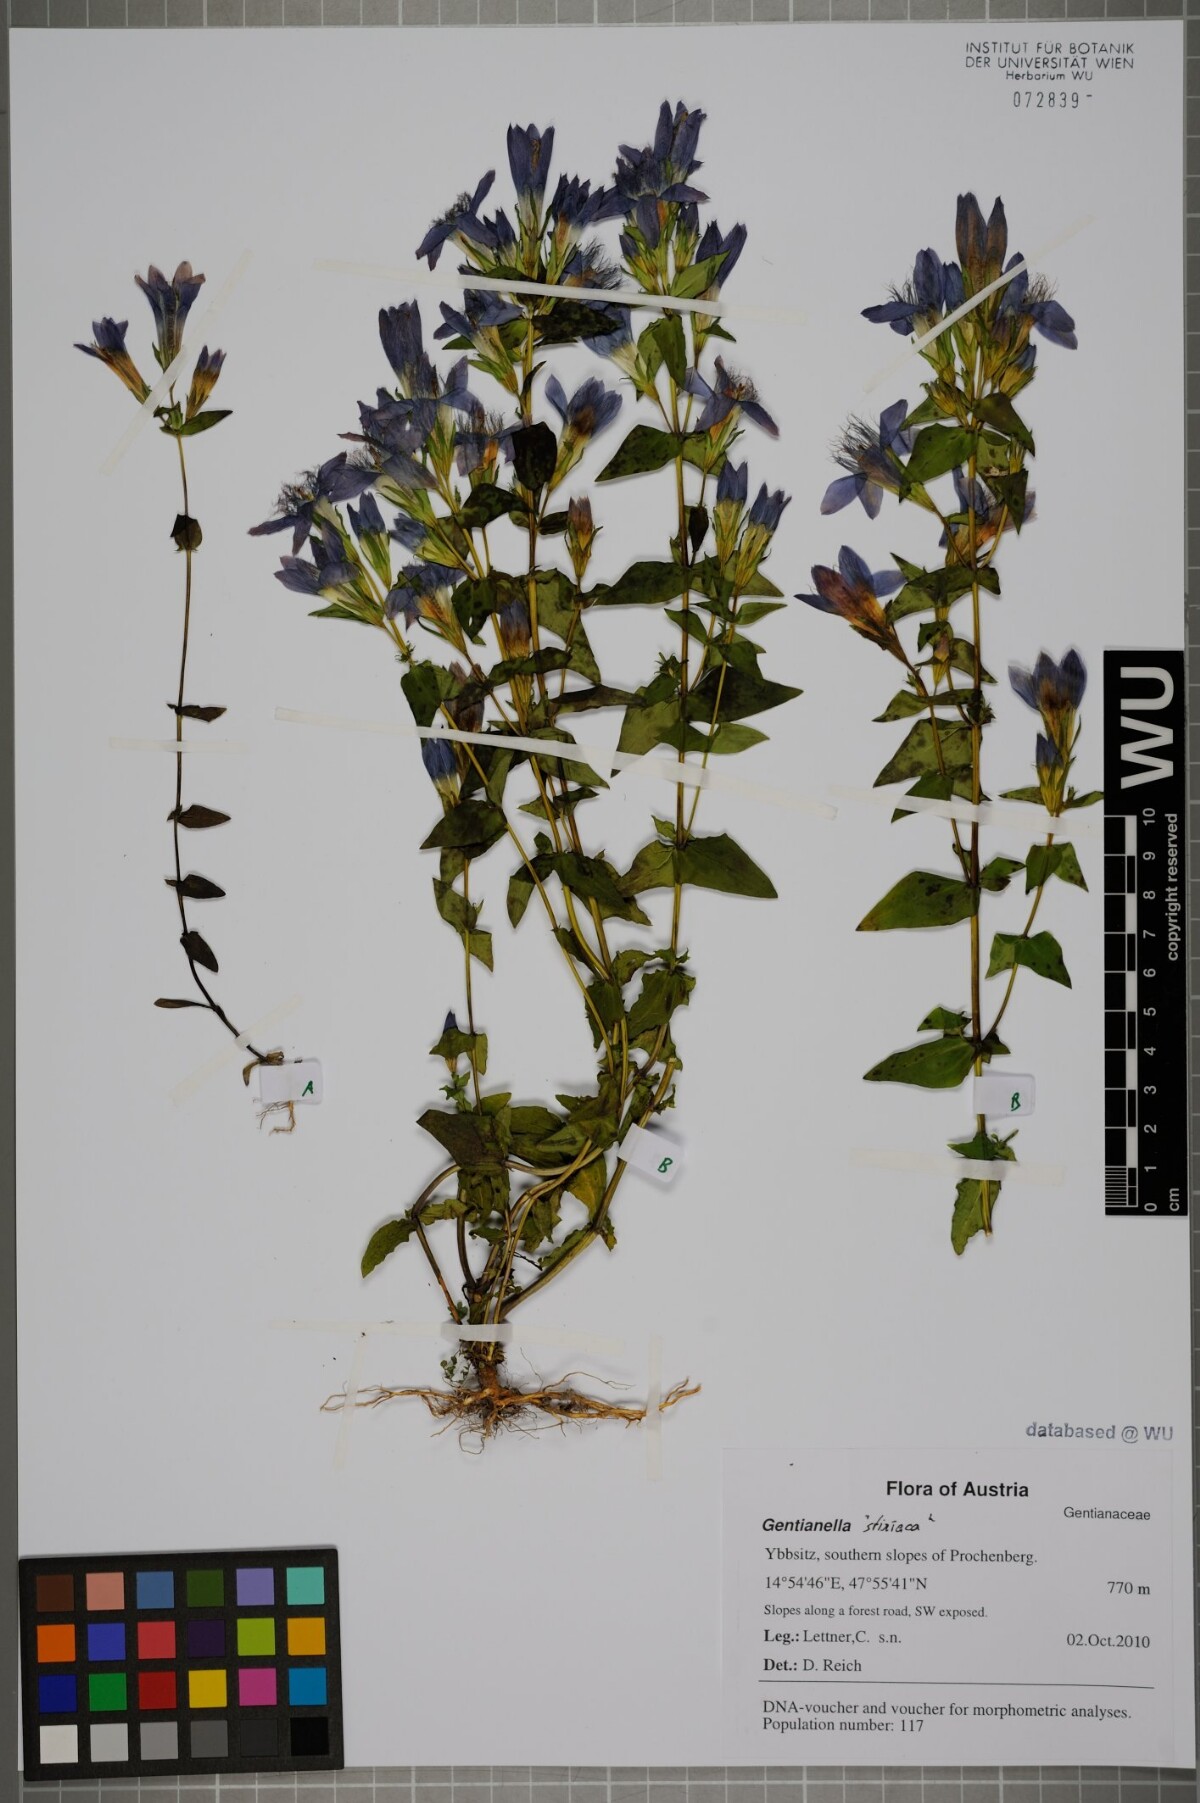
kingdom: Plantae
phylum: Tracheophyta
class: Magnoliopsida
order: Gentianales
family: Gentianaceae
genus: Gentianella
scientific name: Gentianella
